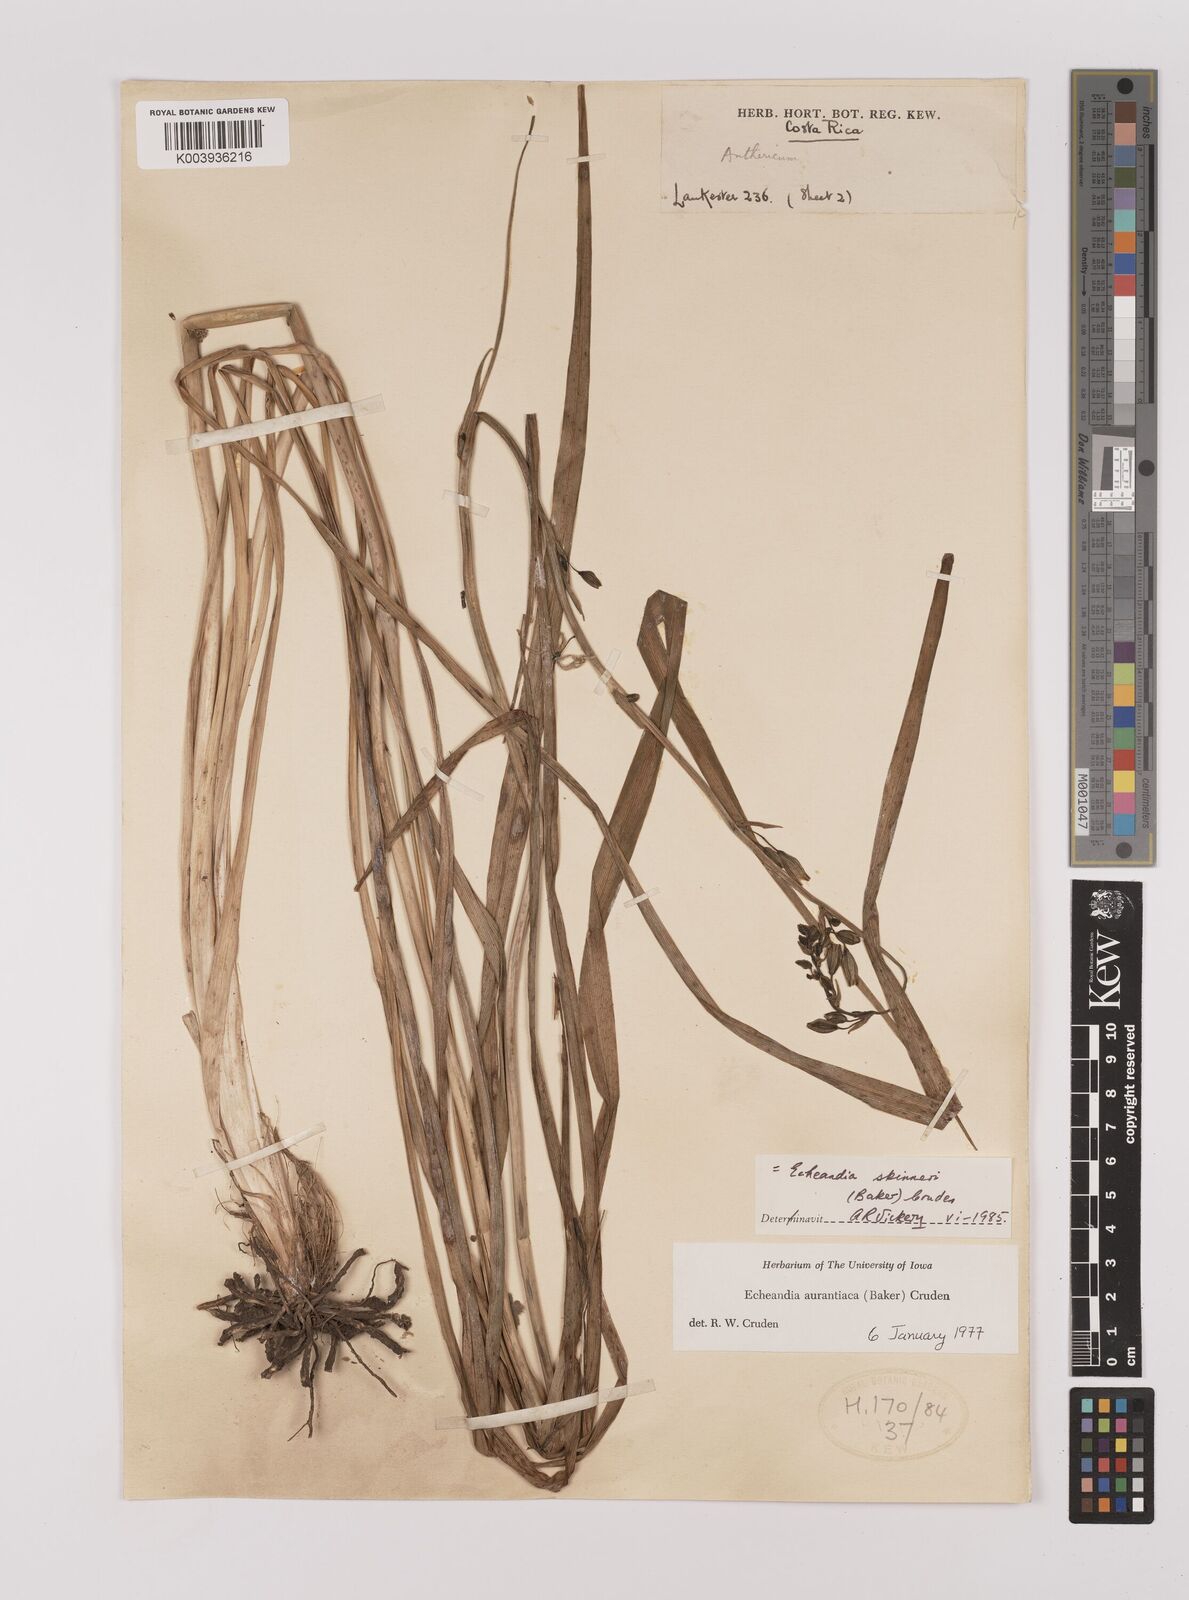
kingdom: Plantae
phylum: Tracheophyta
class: Liliopsida
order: Asparagales
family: Asparagaceae
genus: Echeandia
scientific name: Echeandia skinneri
